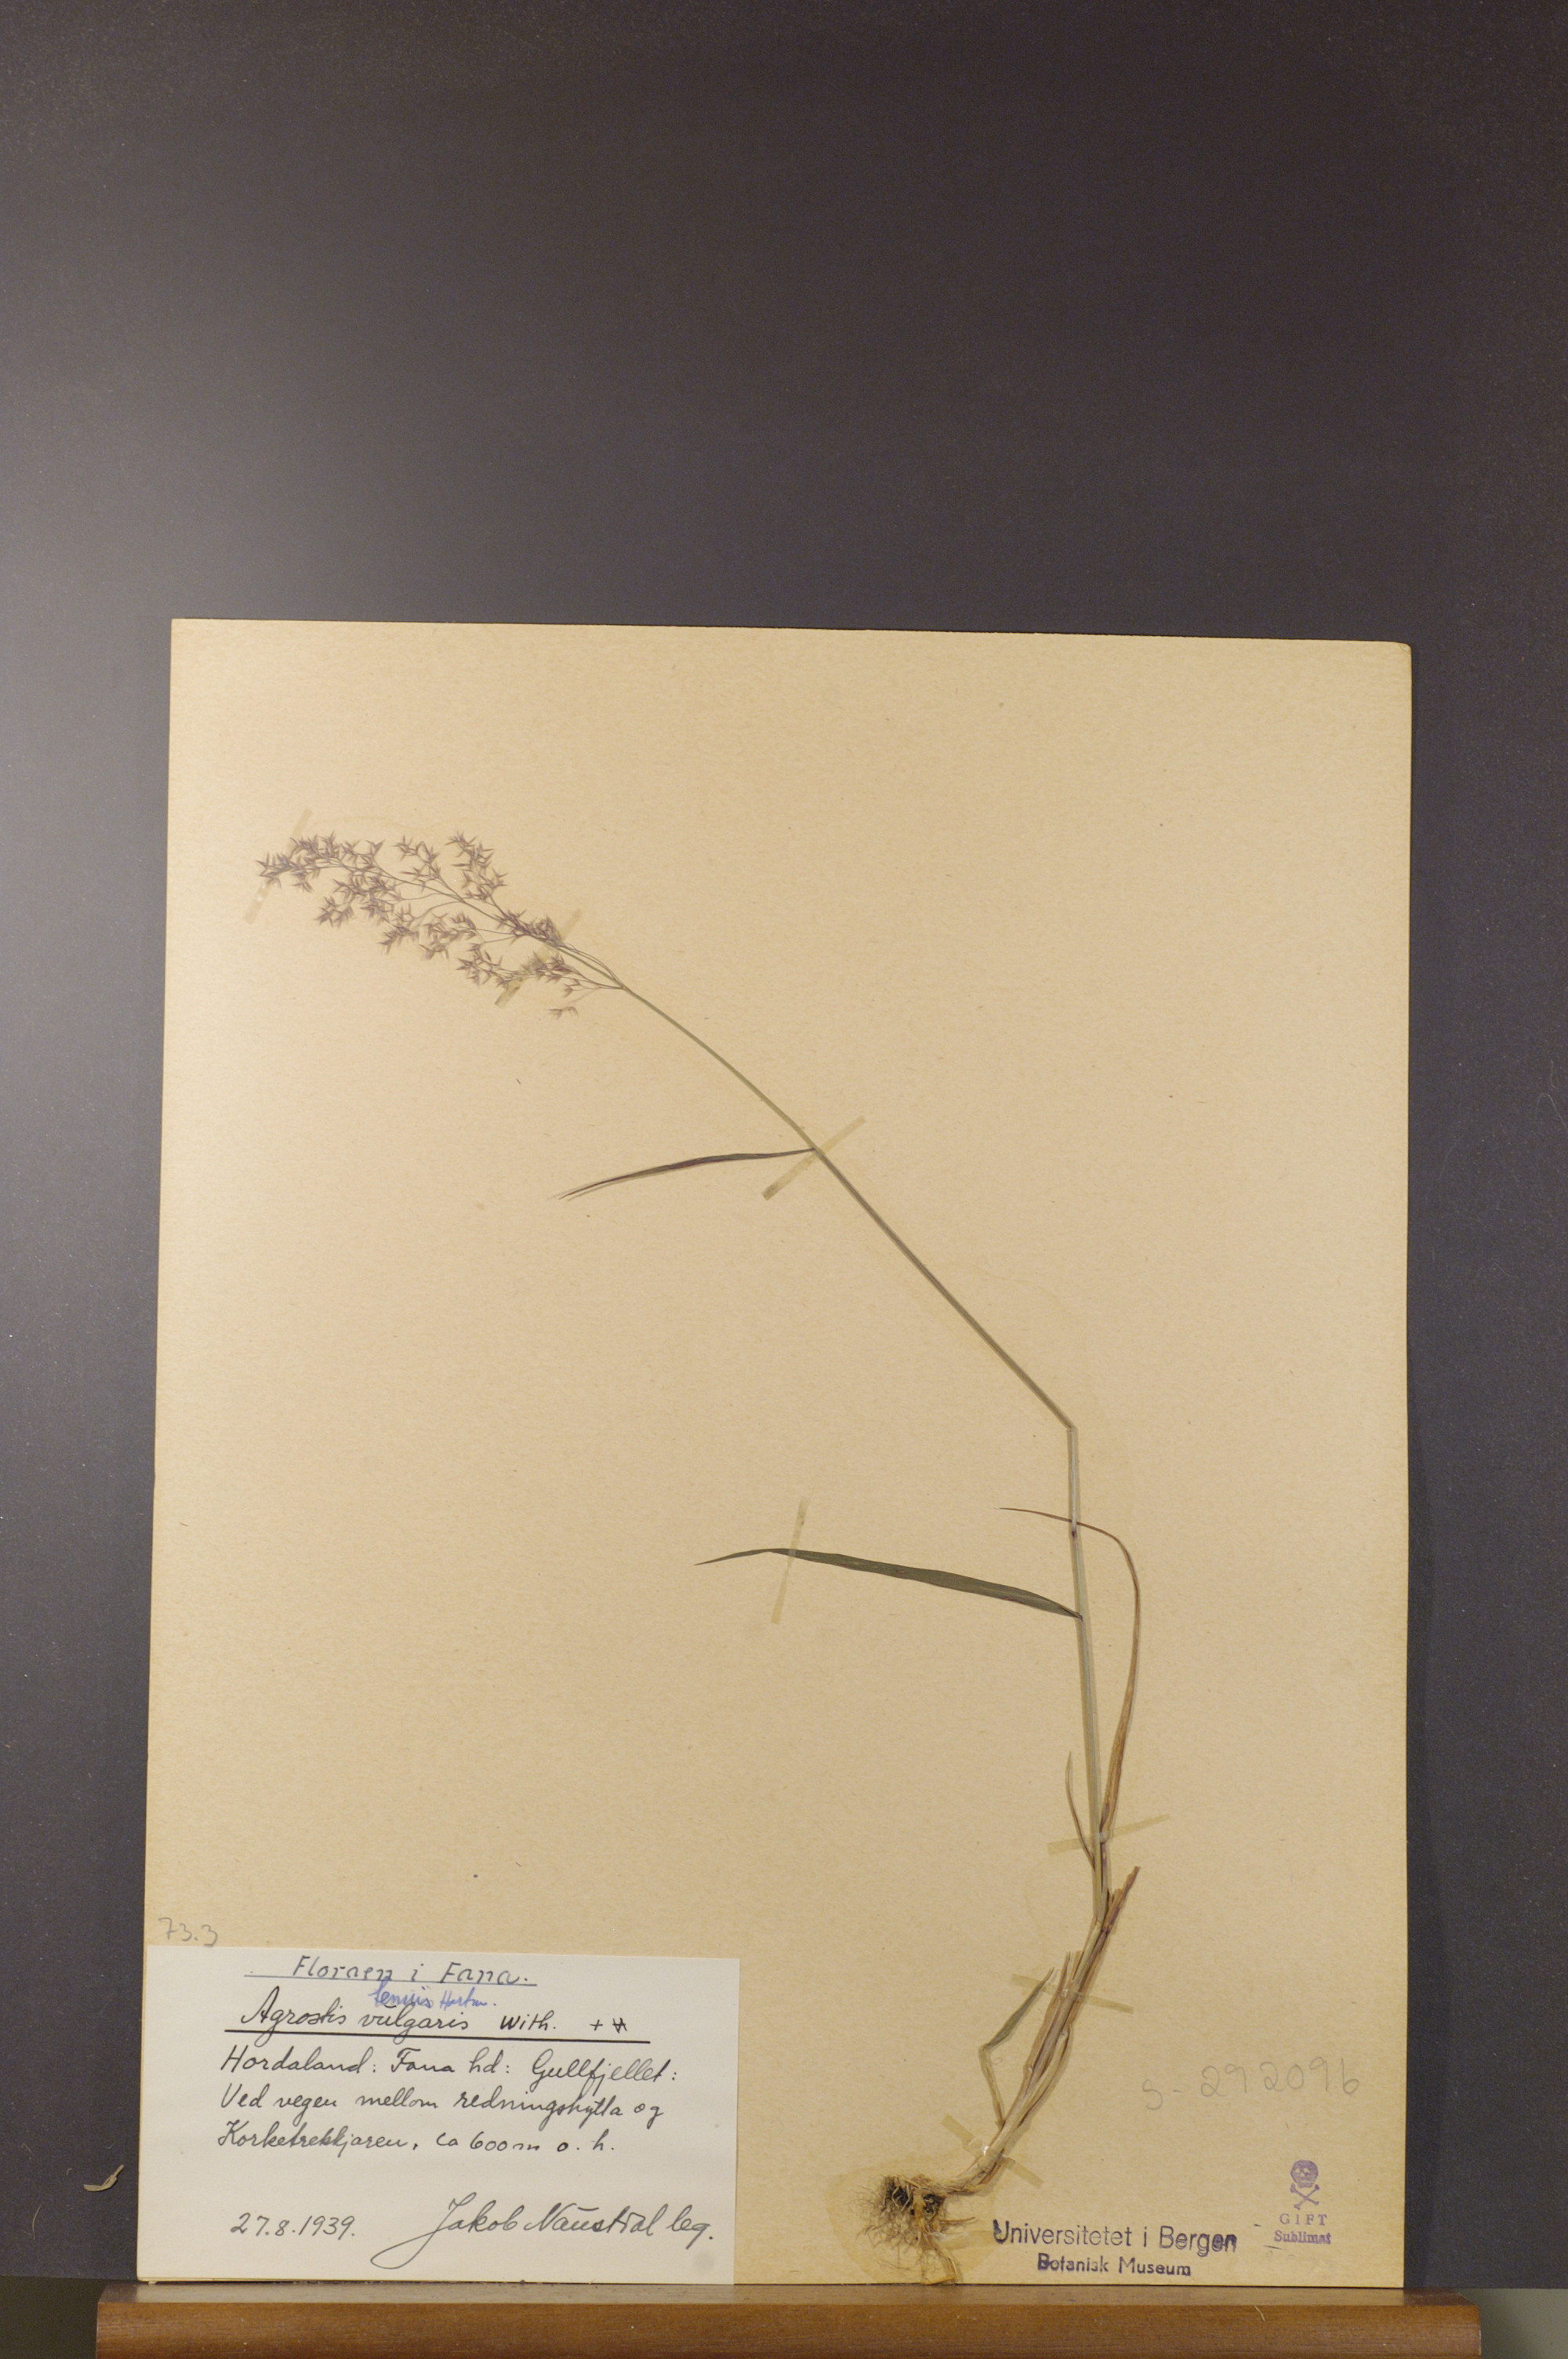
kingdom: Plantae
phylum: Tracheophyta
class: Liliopsida
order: Poales
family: Poaceae
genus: Agrostis
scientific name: Agrostis capillaris
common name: Colonial bentgrass
